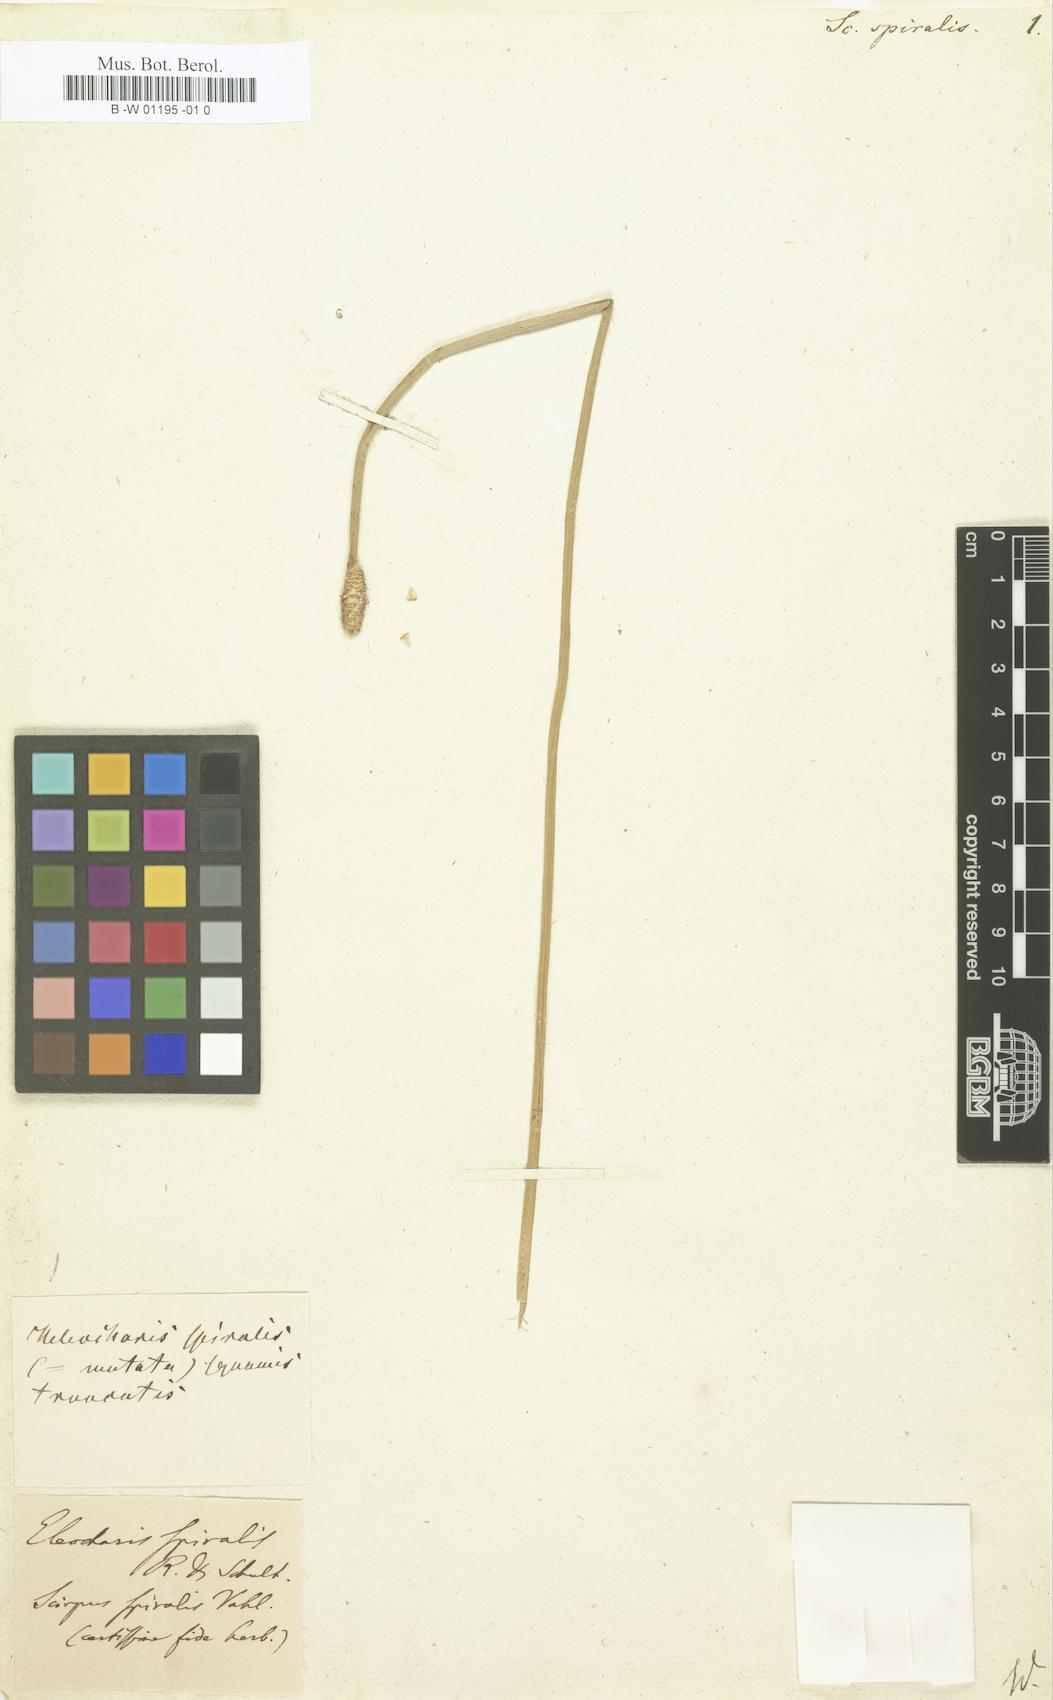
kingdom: Plantae
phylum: Tracheophyta
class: Liliopsida
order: Poales
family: Cyperaceae
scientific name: Cyperaceae
